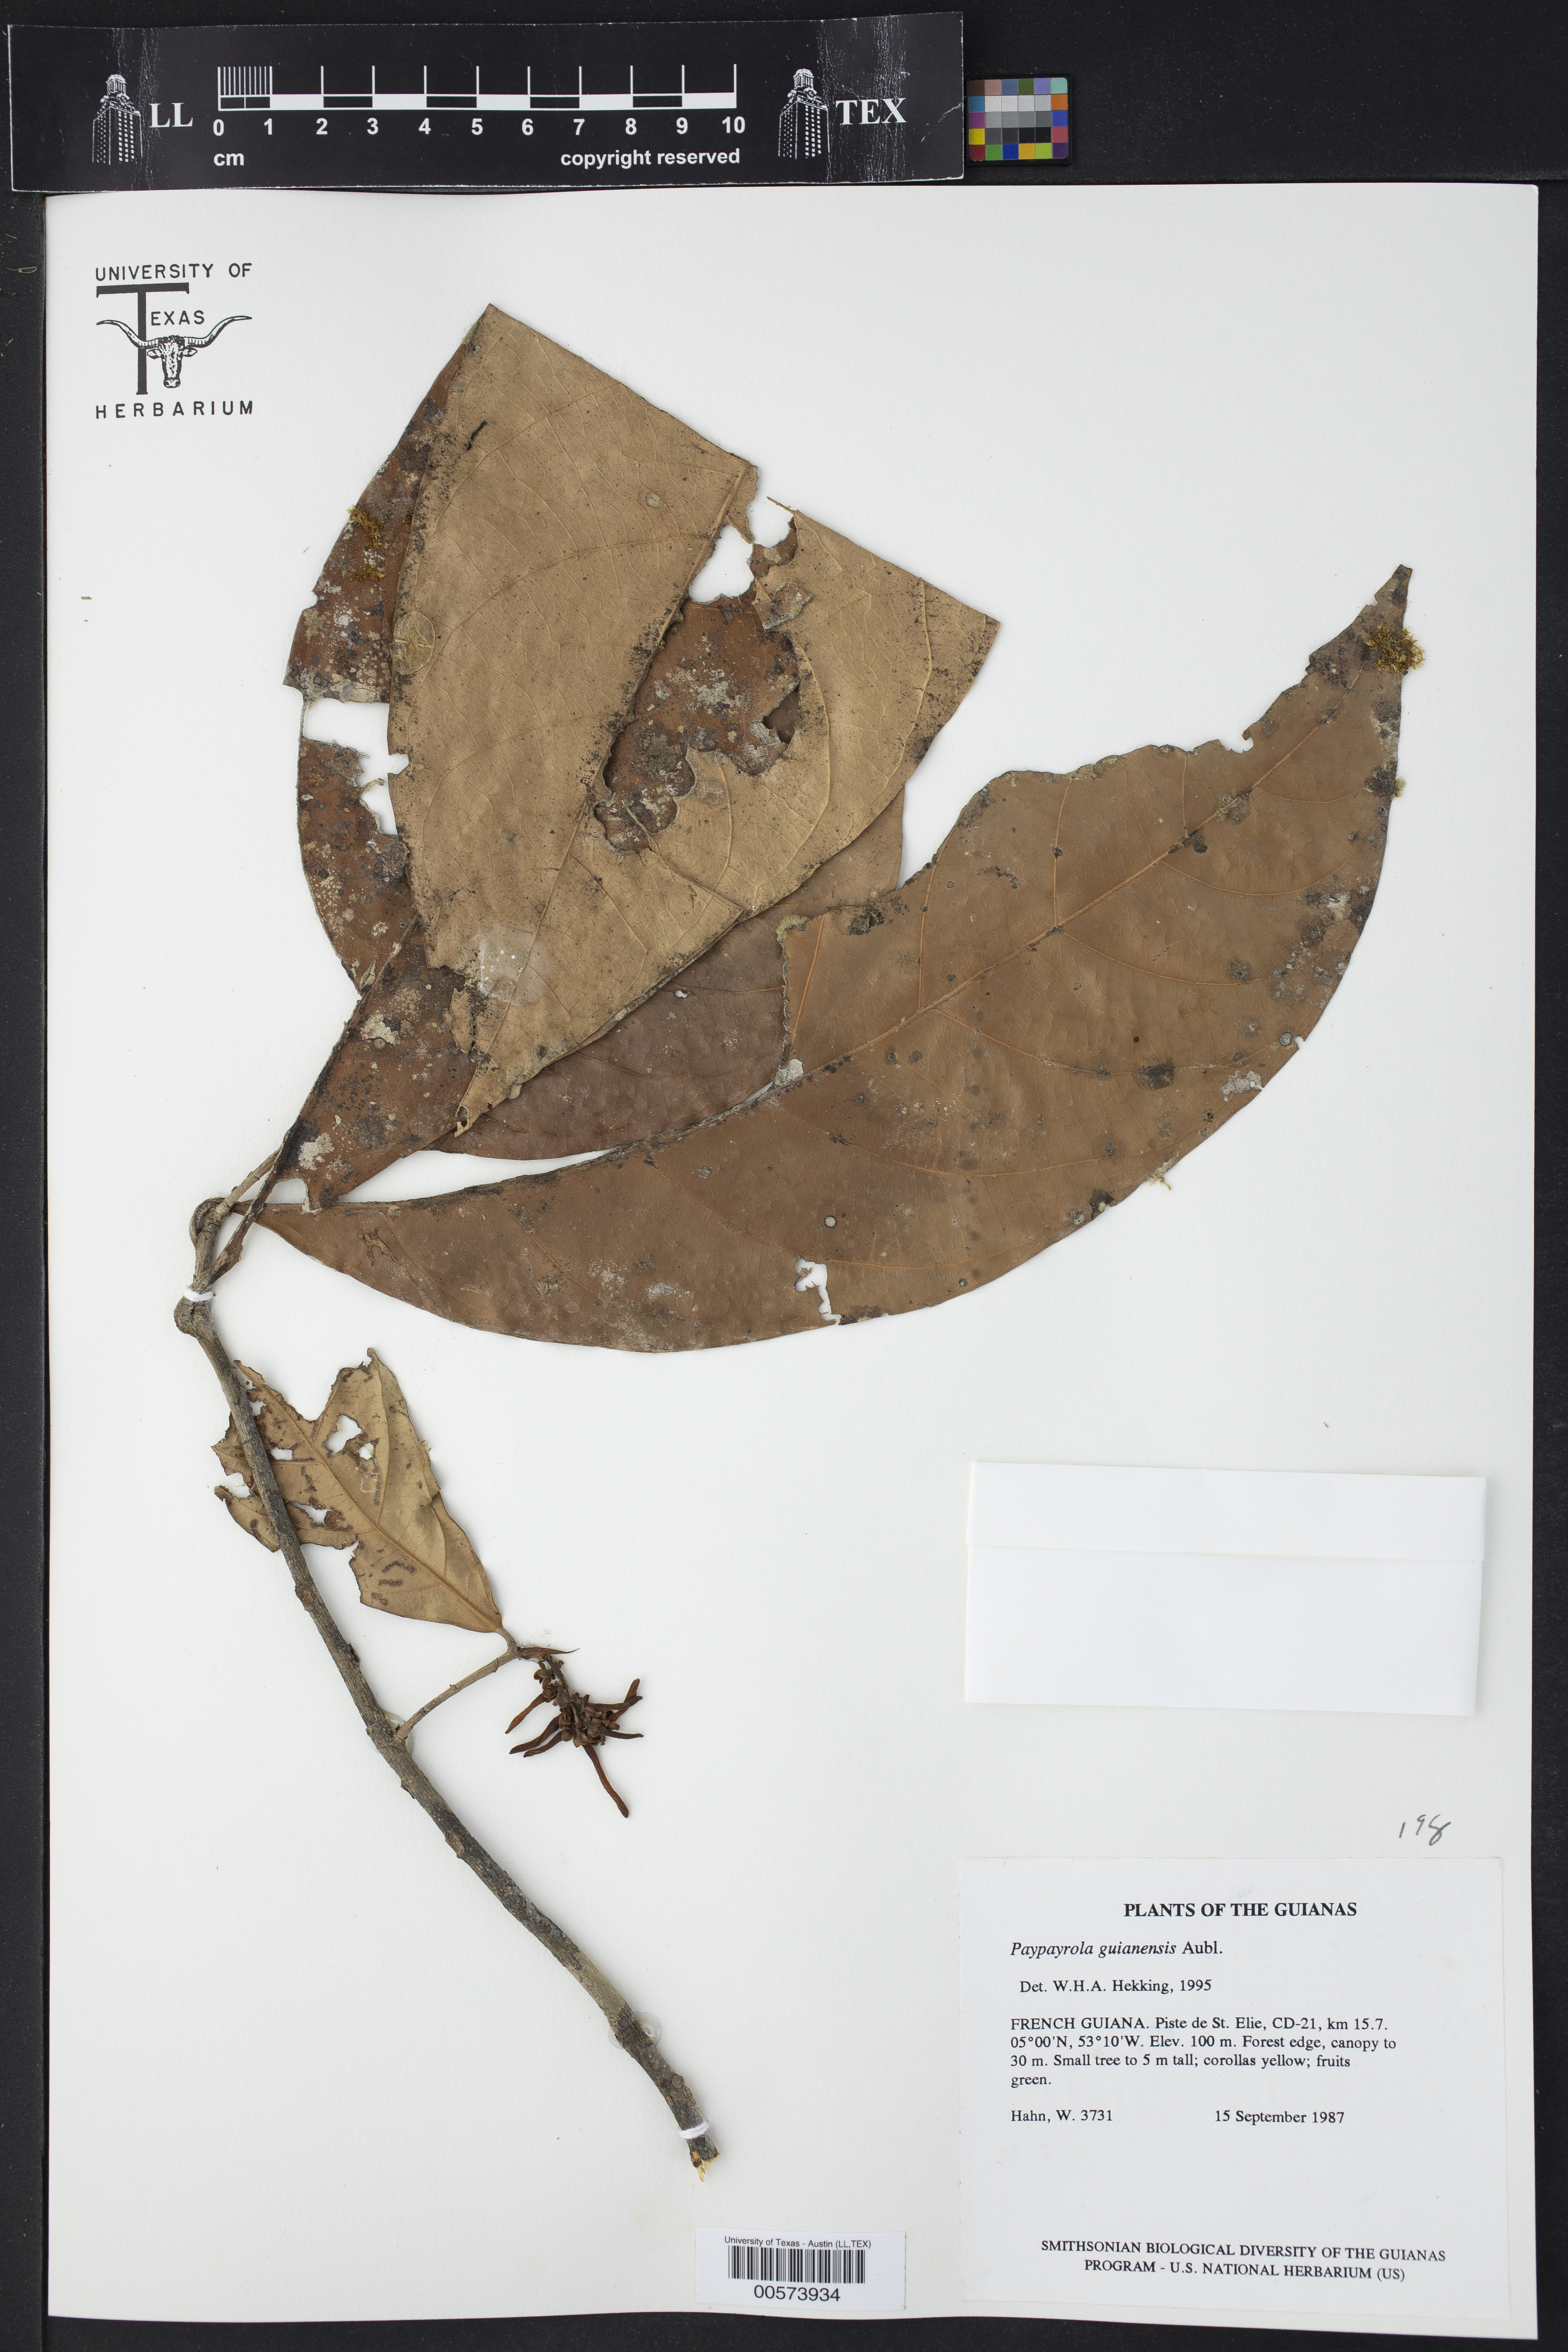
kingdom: Plantae
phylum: Tracheophyta
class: Magnoliopsida
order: Malpighiales
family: Violaceae
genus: Paypayrola
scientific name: Paypayrola guianensis
